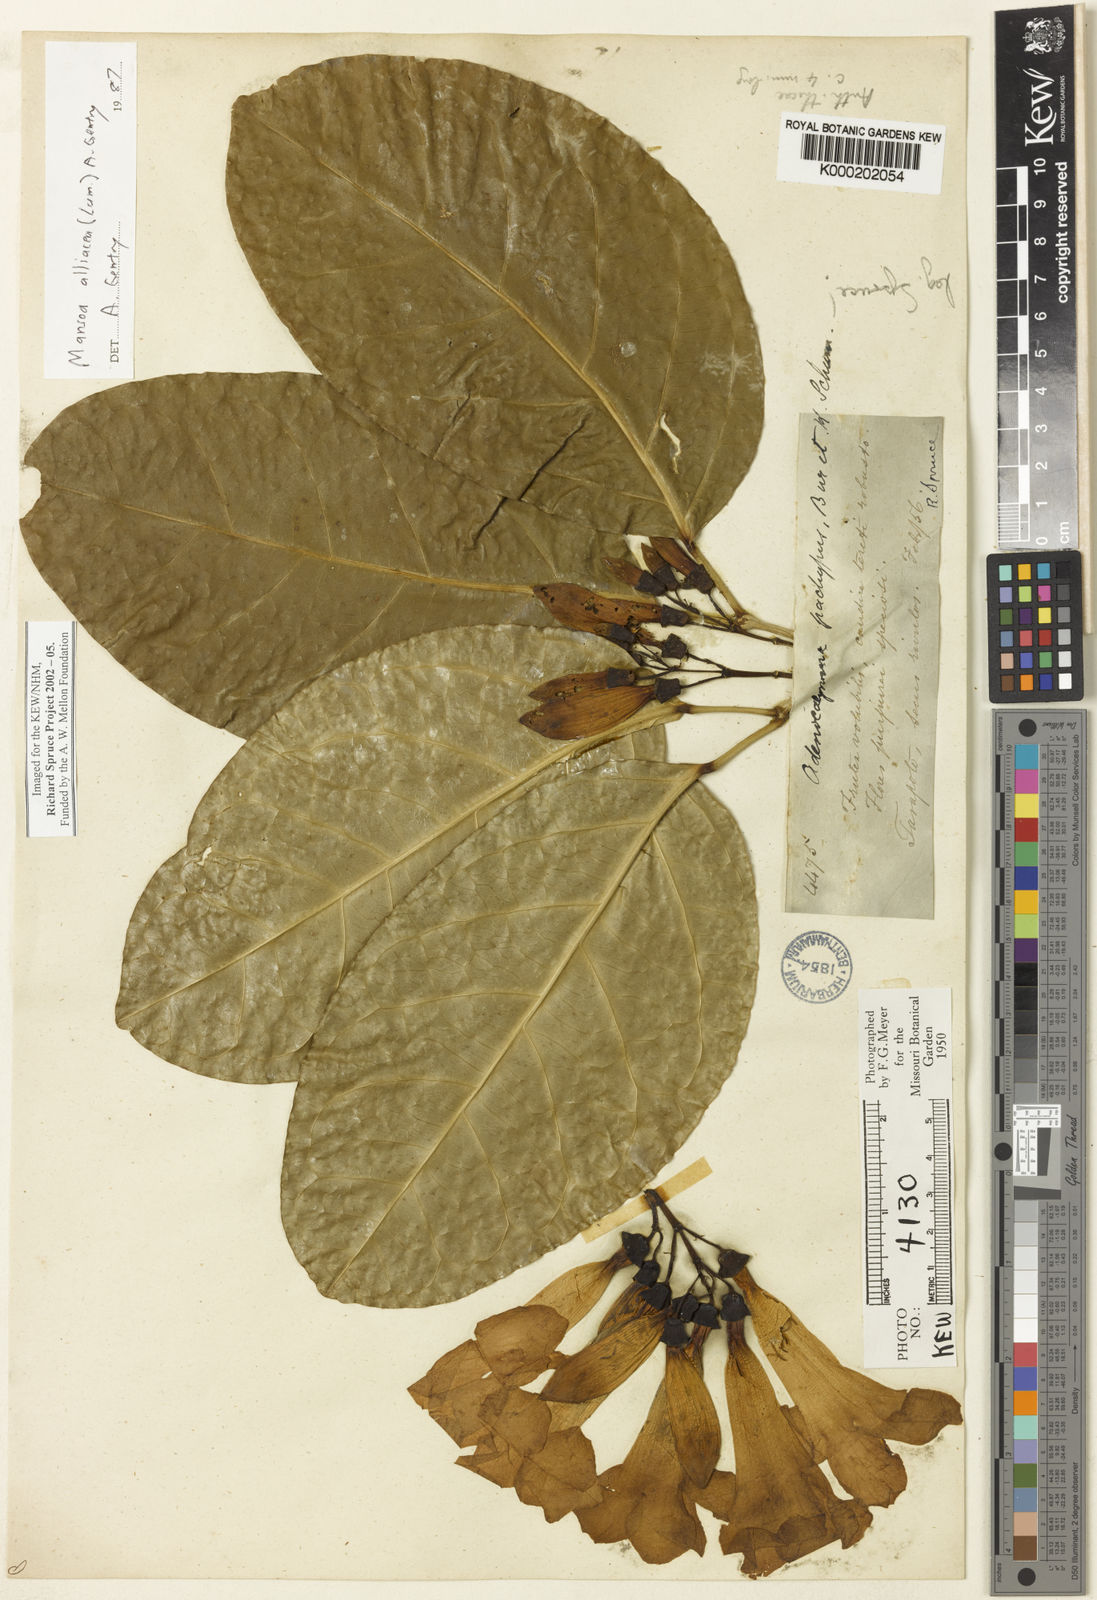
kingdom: Plantae
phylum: Tracheophyta
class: Magnoliopsida
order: Lamiales
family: Bignoniaceae
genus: Mansoa
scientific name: Mansoa alliacea
